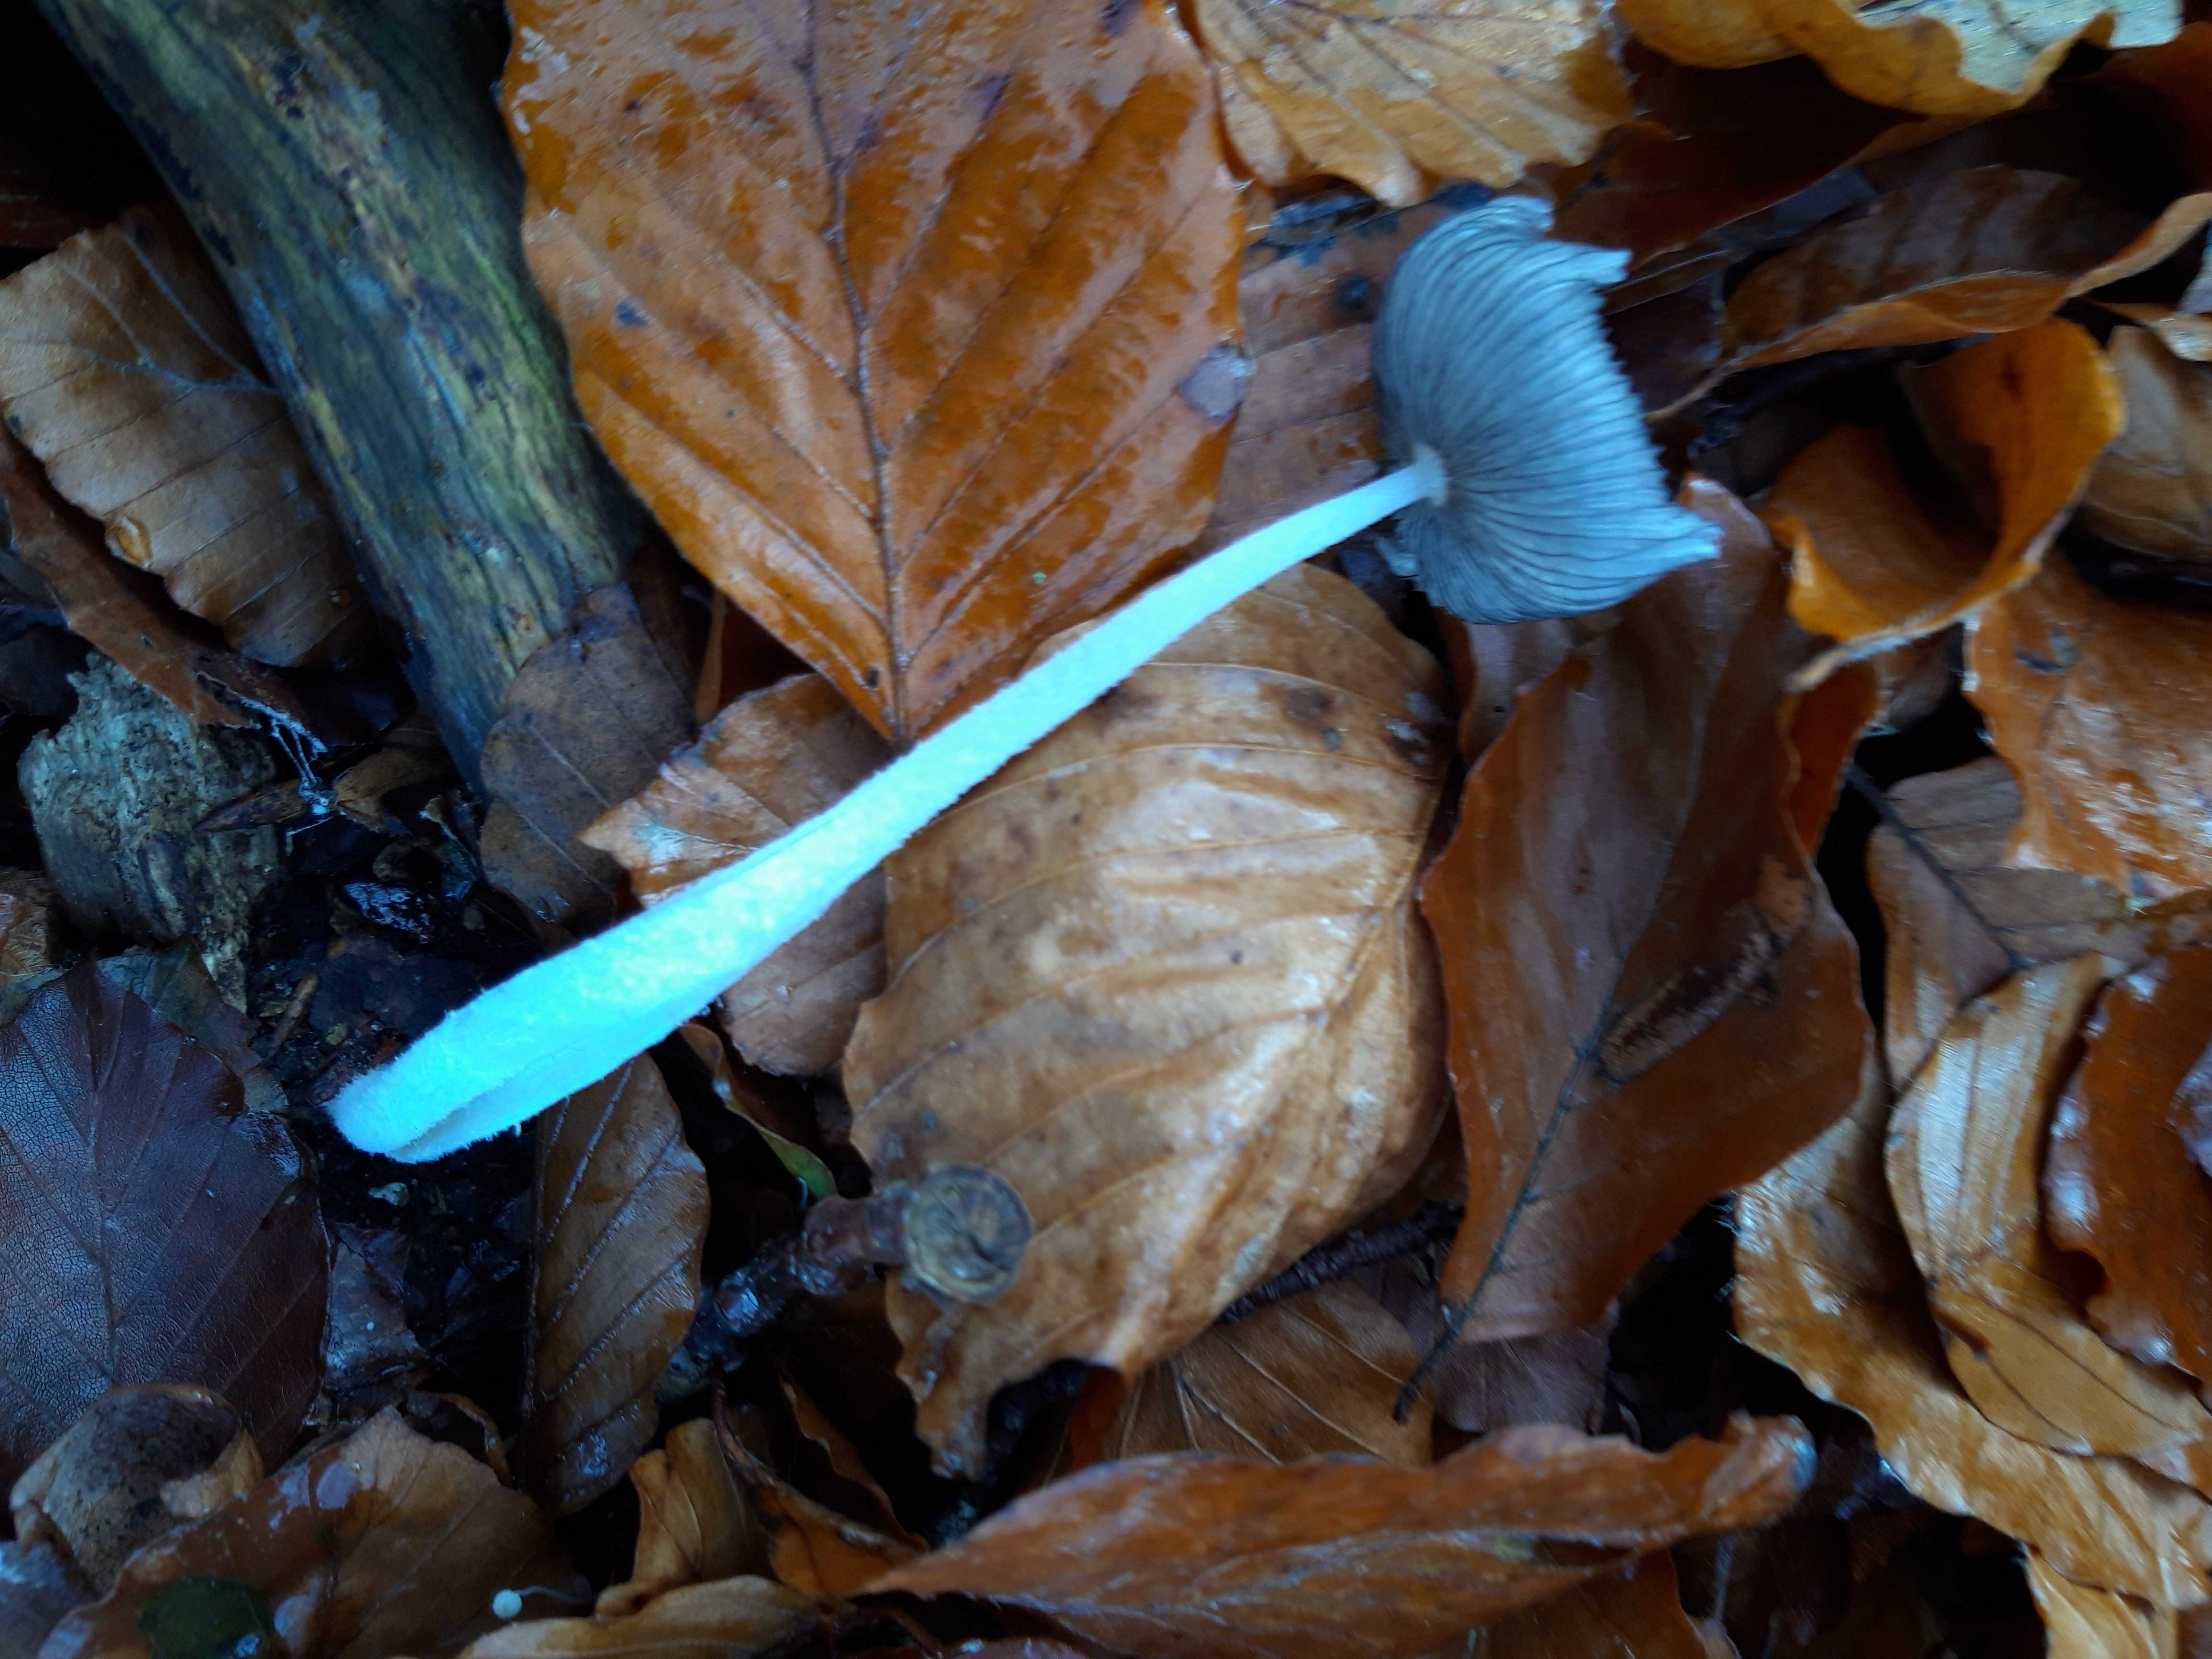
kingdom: Fungi
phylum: Basidiomycota
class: Agaricomycetes
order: Agaricales
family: Psathyrellaceae
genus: Coprinopsis
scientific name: Coprinopsis lagopus
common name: dunstokket blækhat
